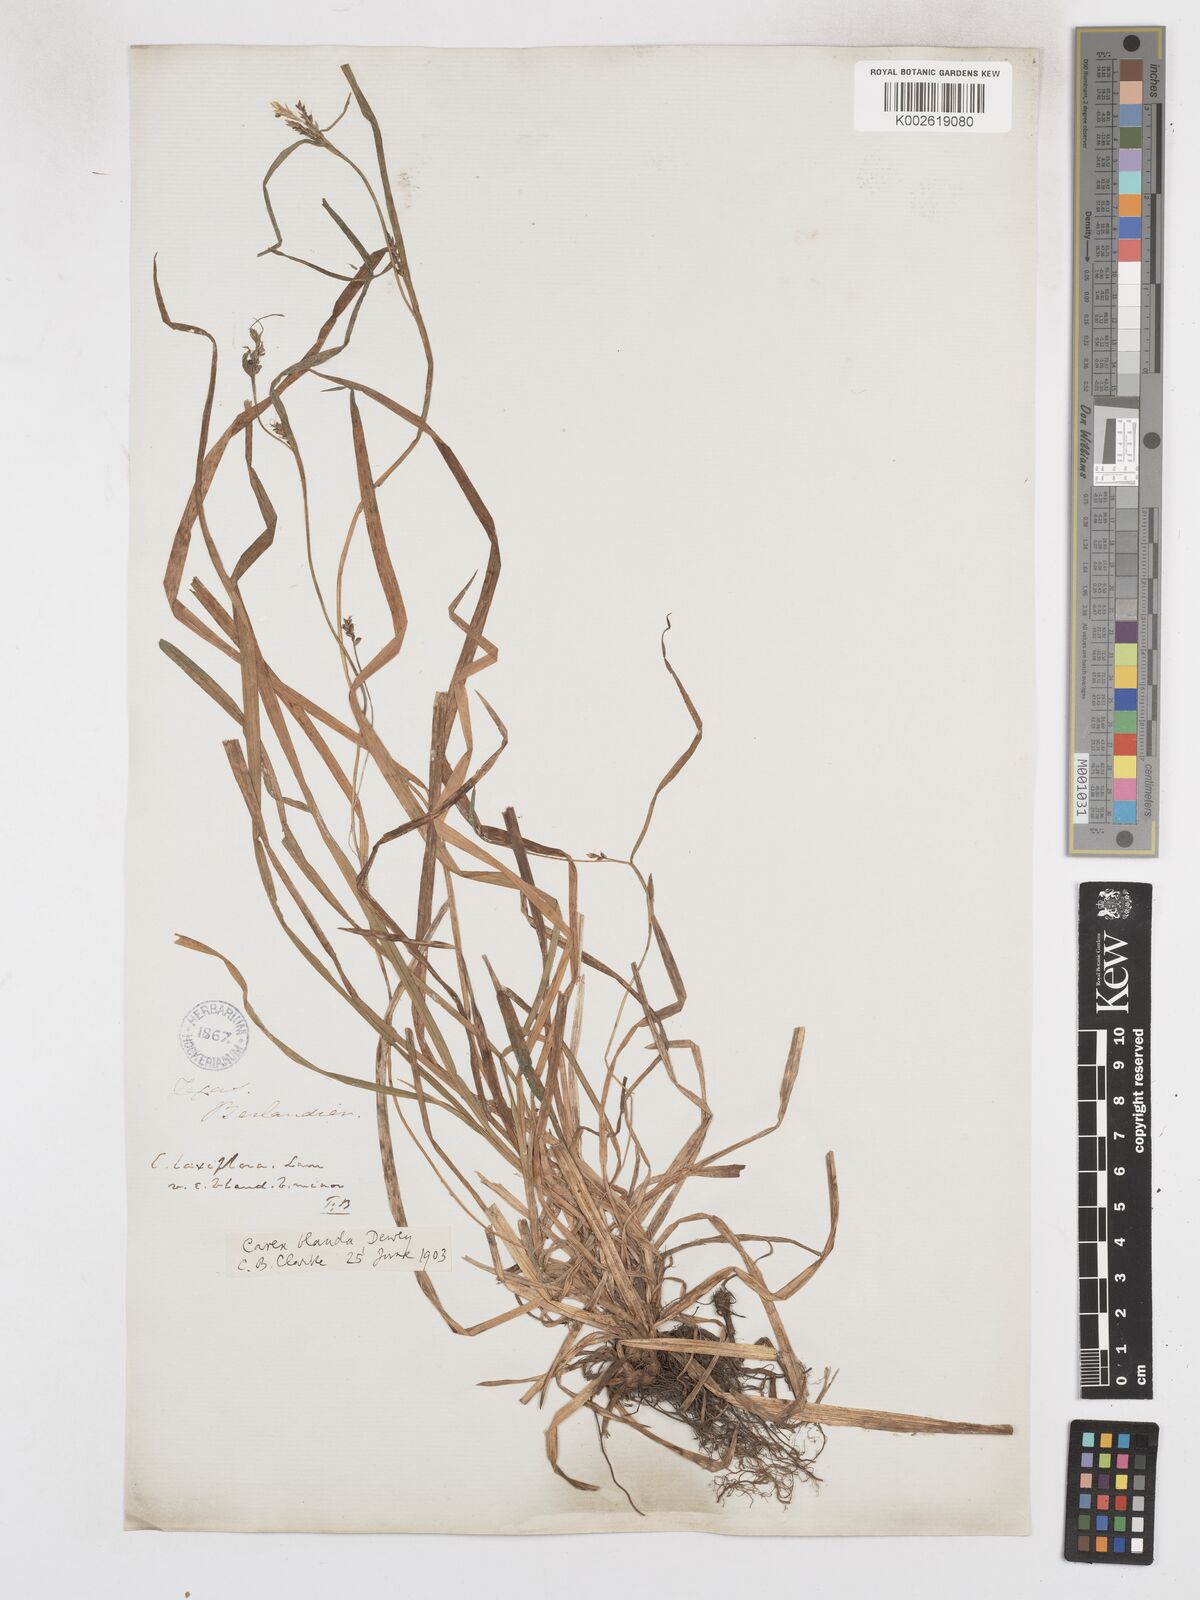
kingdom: Plantae
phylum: Tracheophyta
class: Liliopsida
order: Poales
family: Cyperaceae
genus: Carex
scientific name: Carex blanda
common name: Bland sedge
